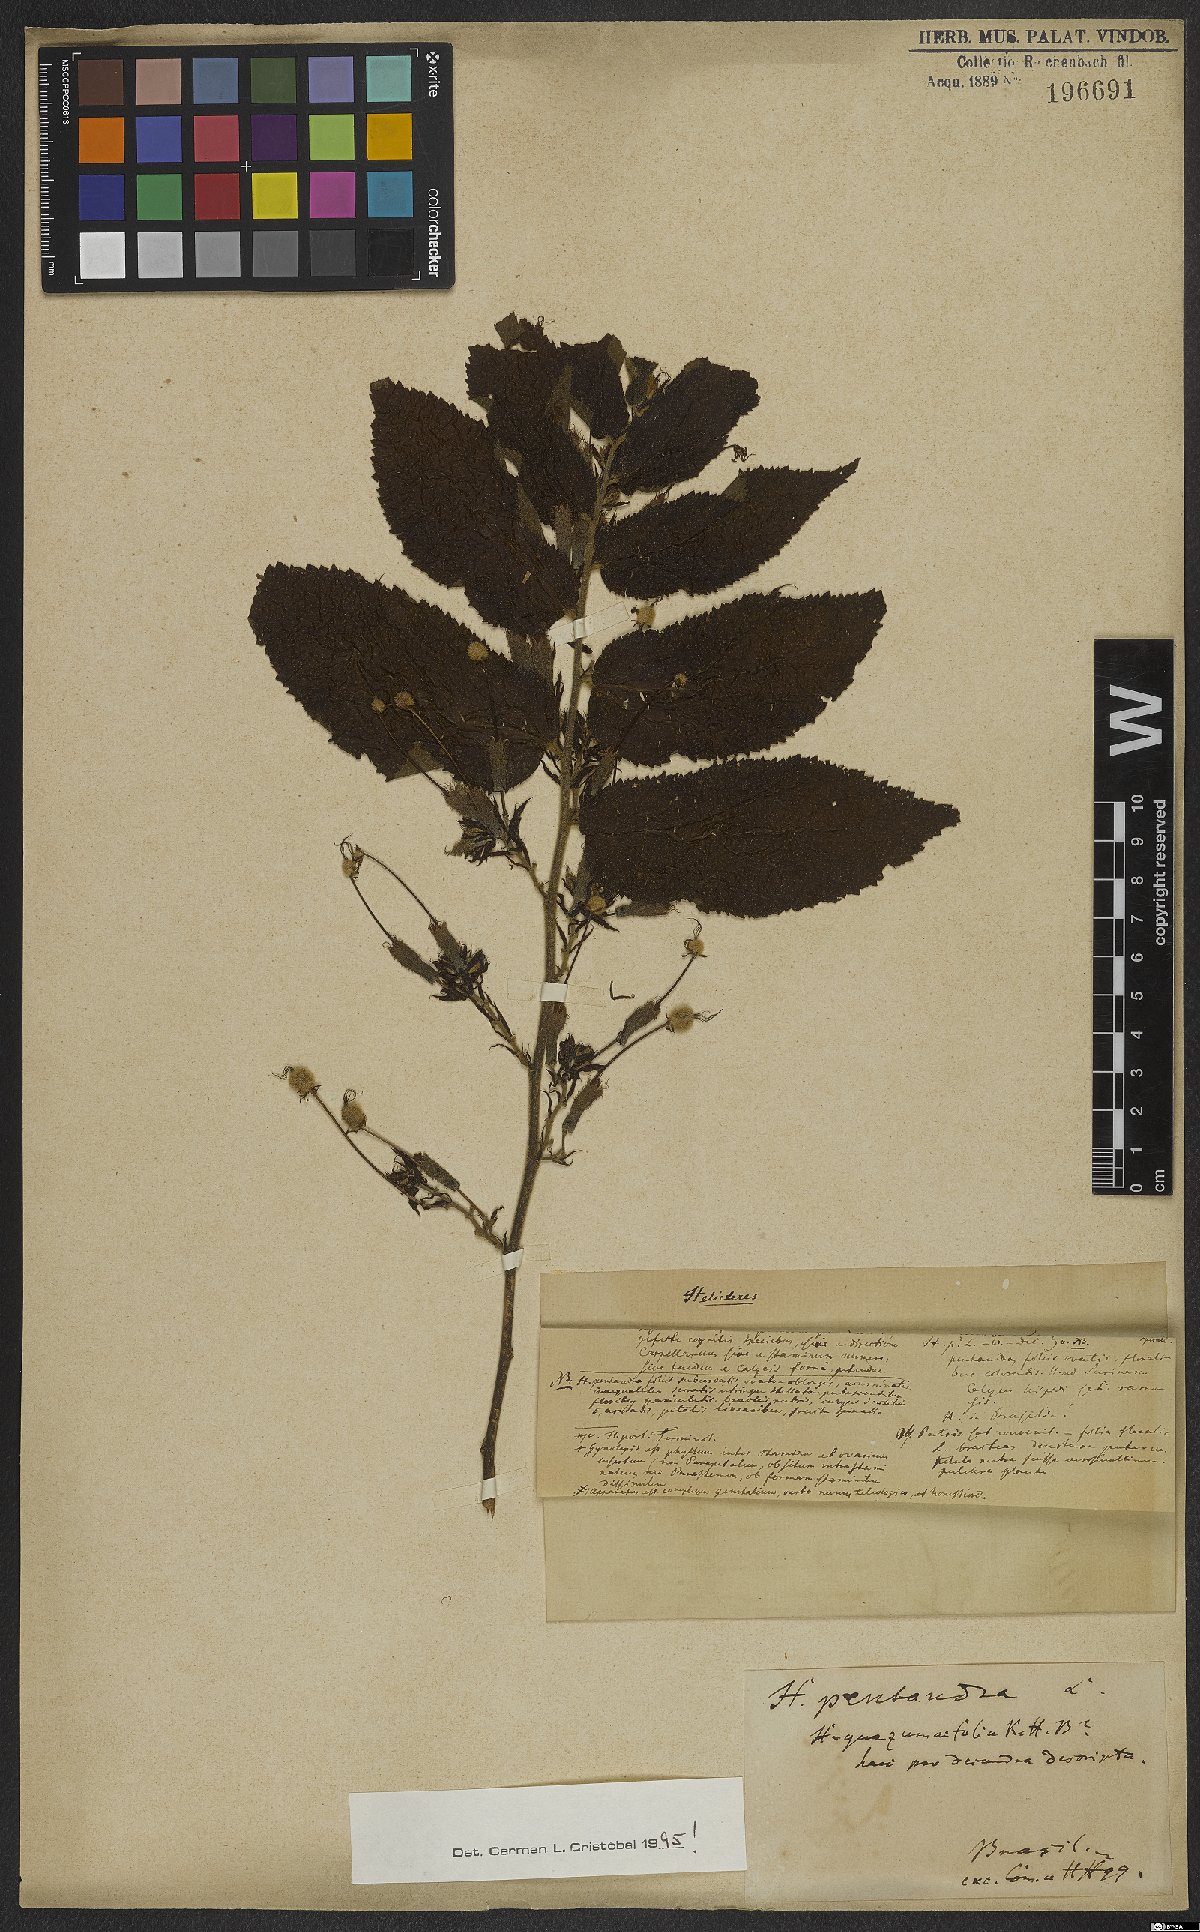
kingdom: Plantae
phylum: Tracheophyta
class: Magnoliopsida
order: Malvales
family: Malvaceae
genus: Helicteres
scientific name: Helicteres pentandra
